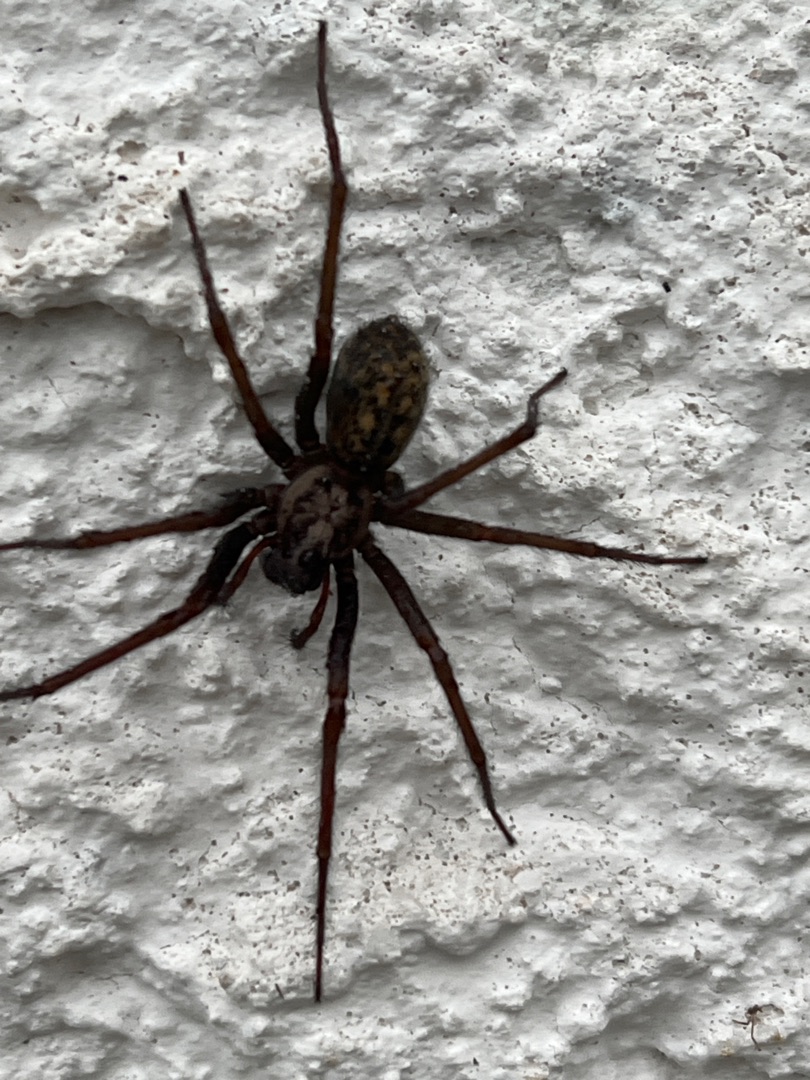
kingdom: Animalia
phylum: Arthropoda
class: Arachnida
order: Araneae
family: Agelenidae
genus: Eratigena
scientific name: Eratigena atrica
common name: Stor husedderkop
